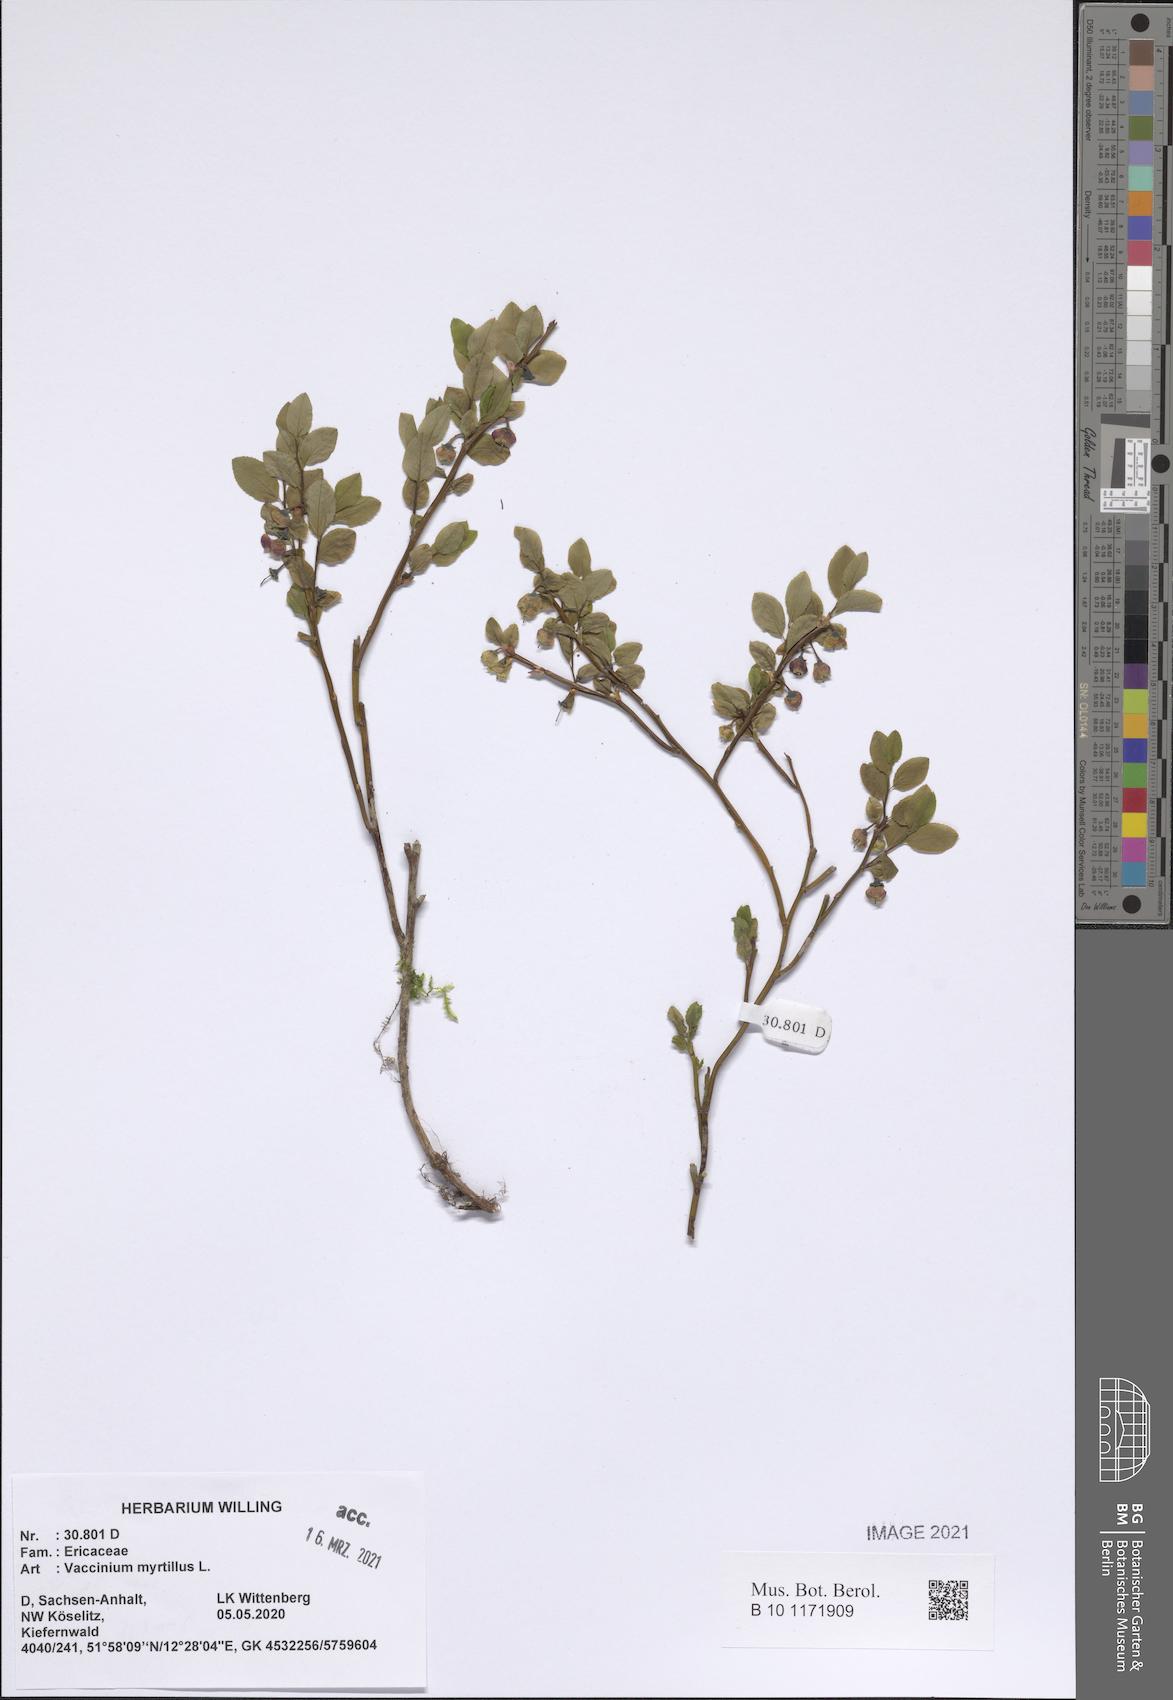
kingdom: Plantae
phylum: Tracheophyta
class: Magnoliopsida
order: Ericales
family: Ericaceae
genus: Vaccinium
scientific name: Vaccinium myrtillus
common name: Bilberry
